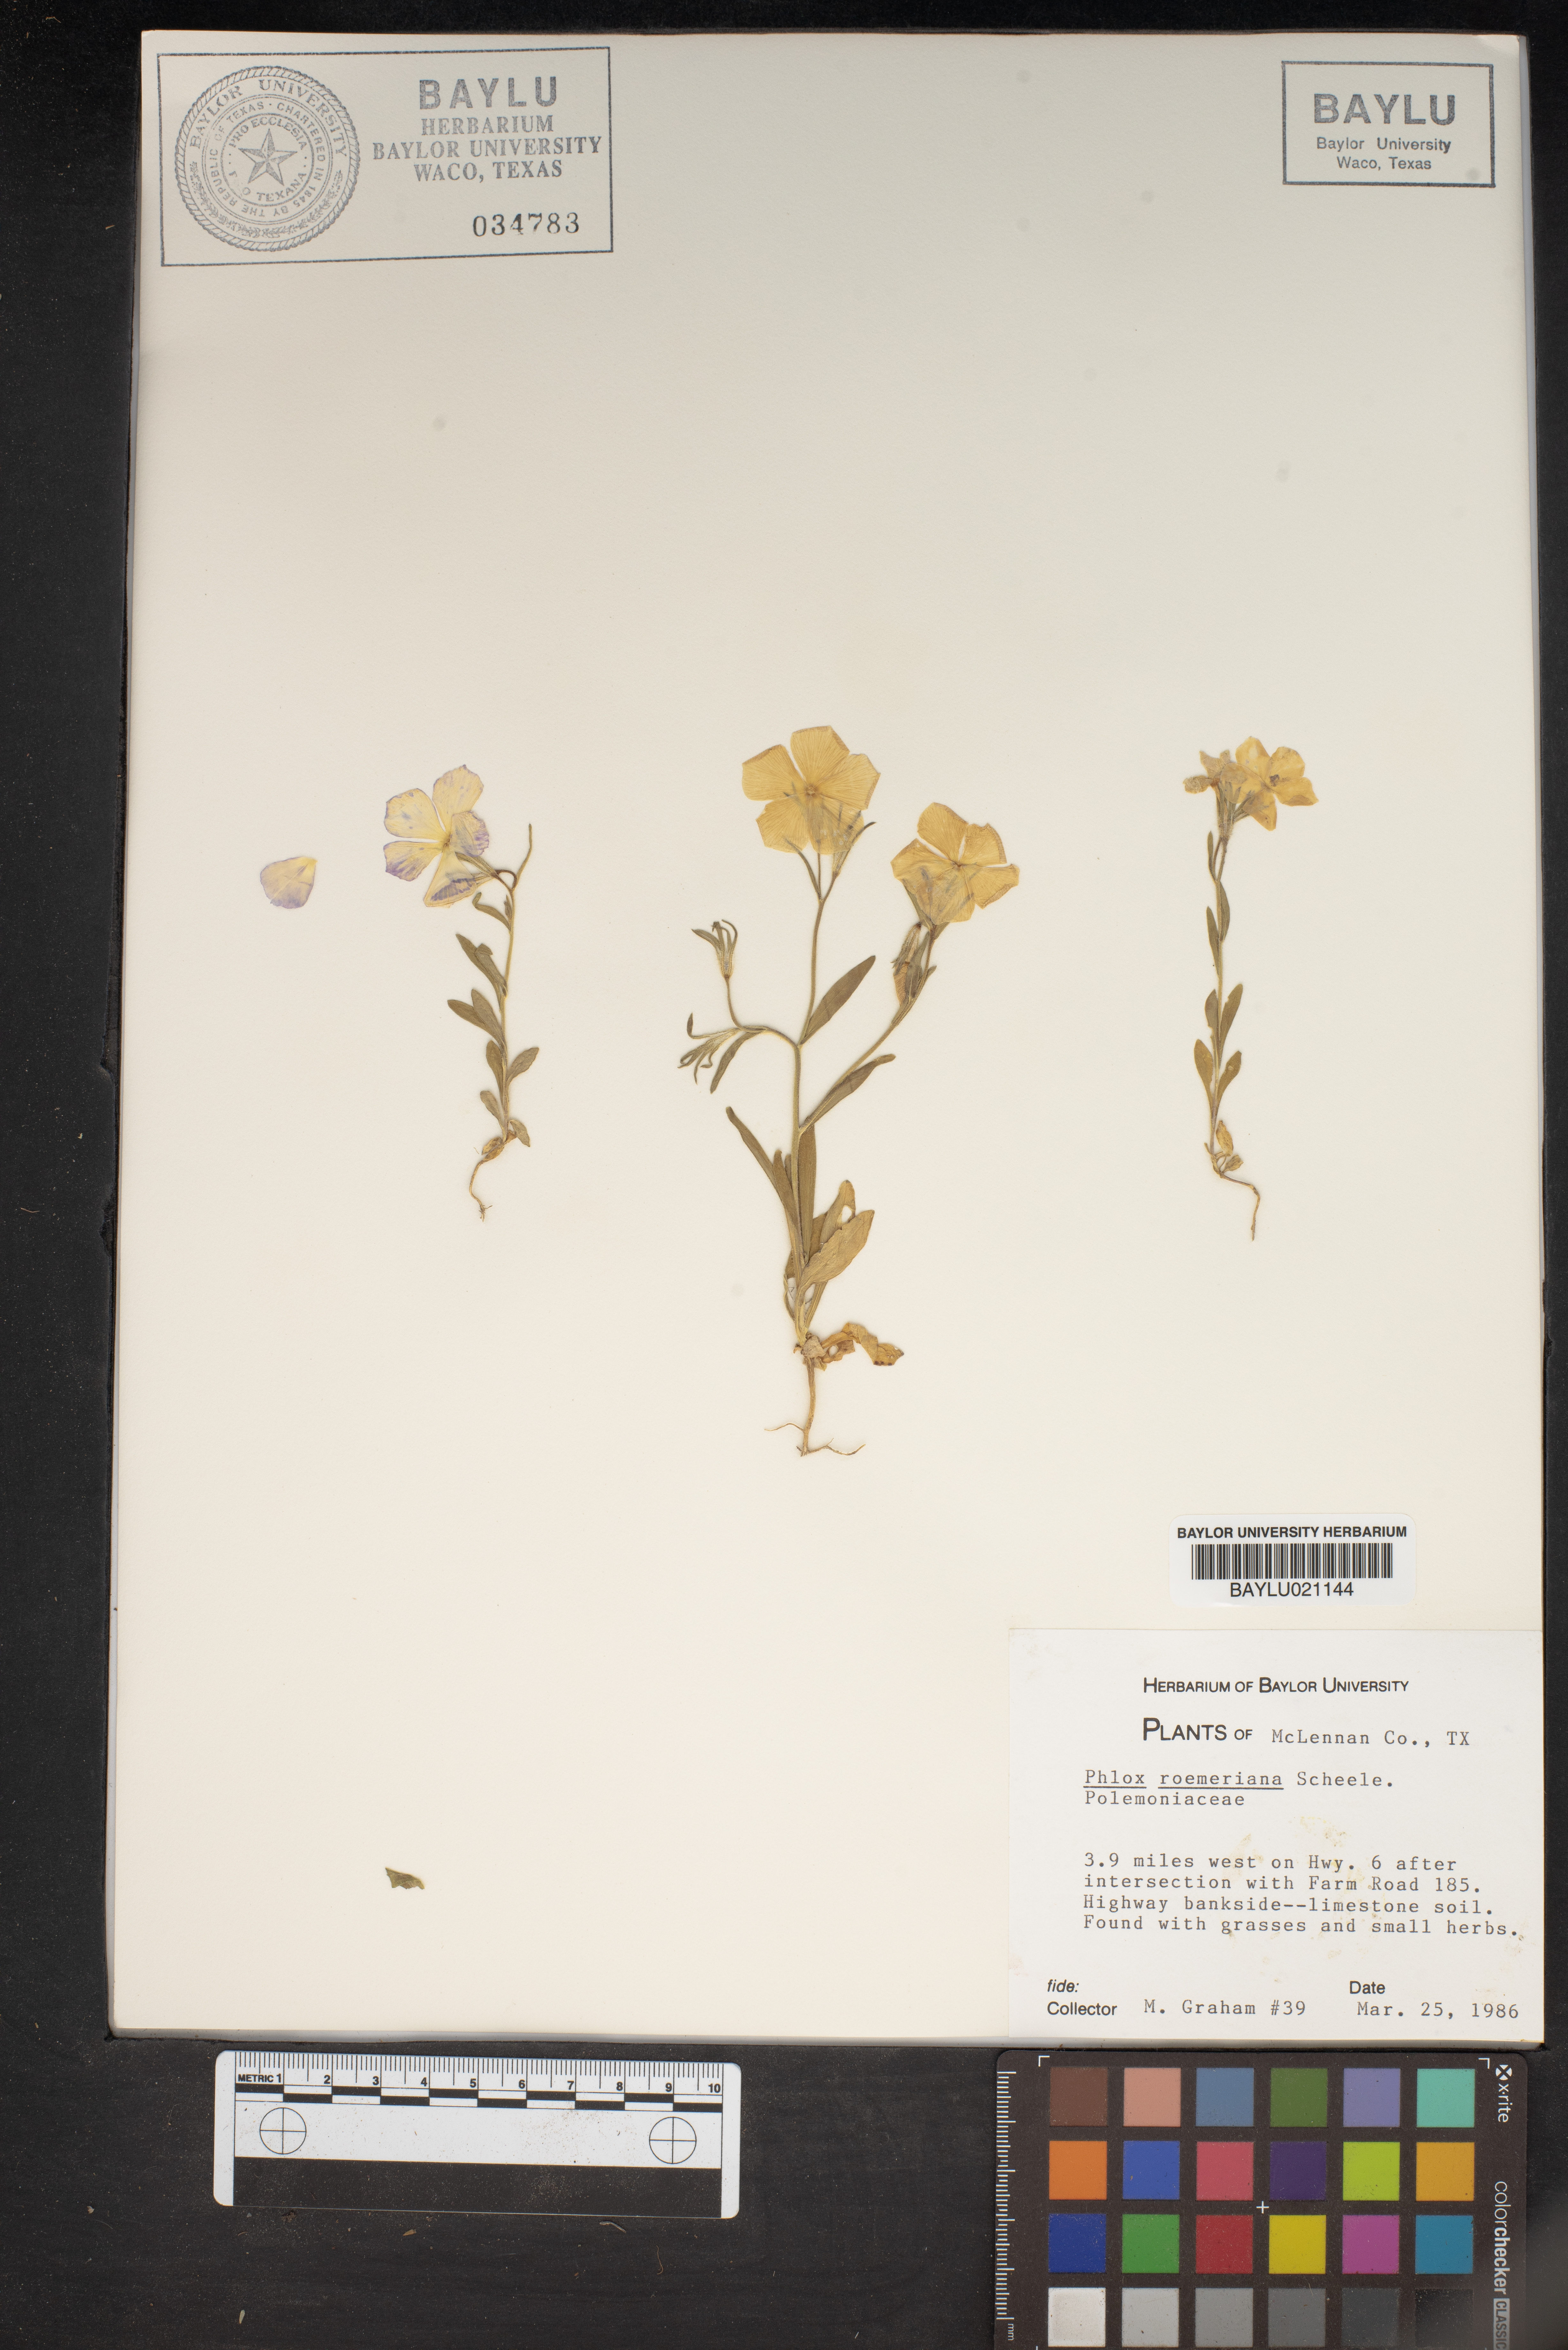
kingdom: Plantae
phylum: Tracheophyta
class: Magnoliopsida
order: Ericales
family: Polemoniaceae
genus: Phlox
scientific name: Phlox roemeriana
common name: Roemer's phlox
